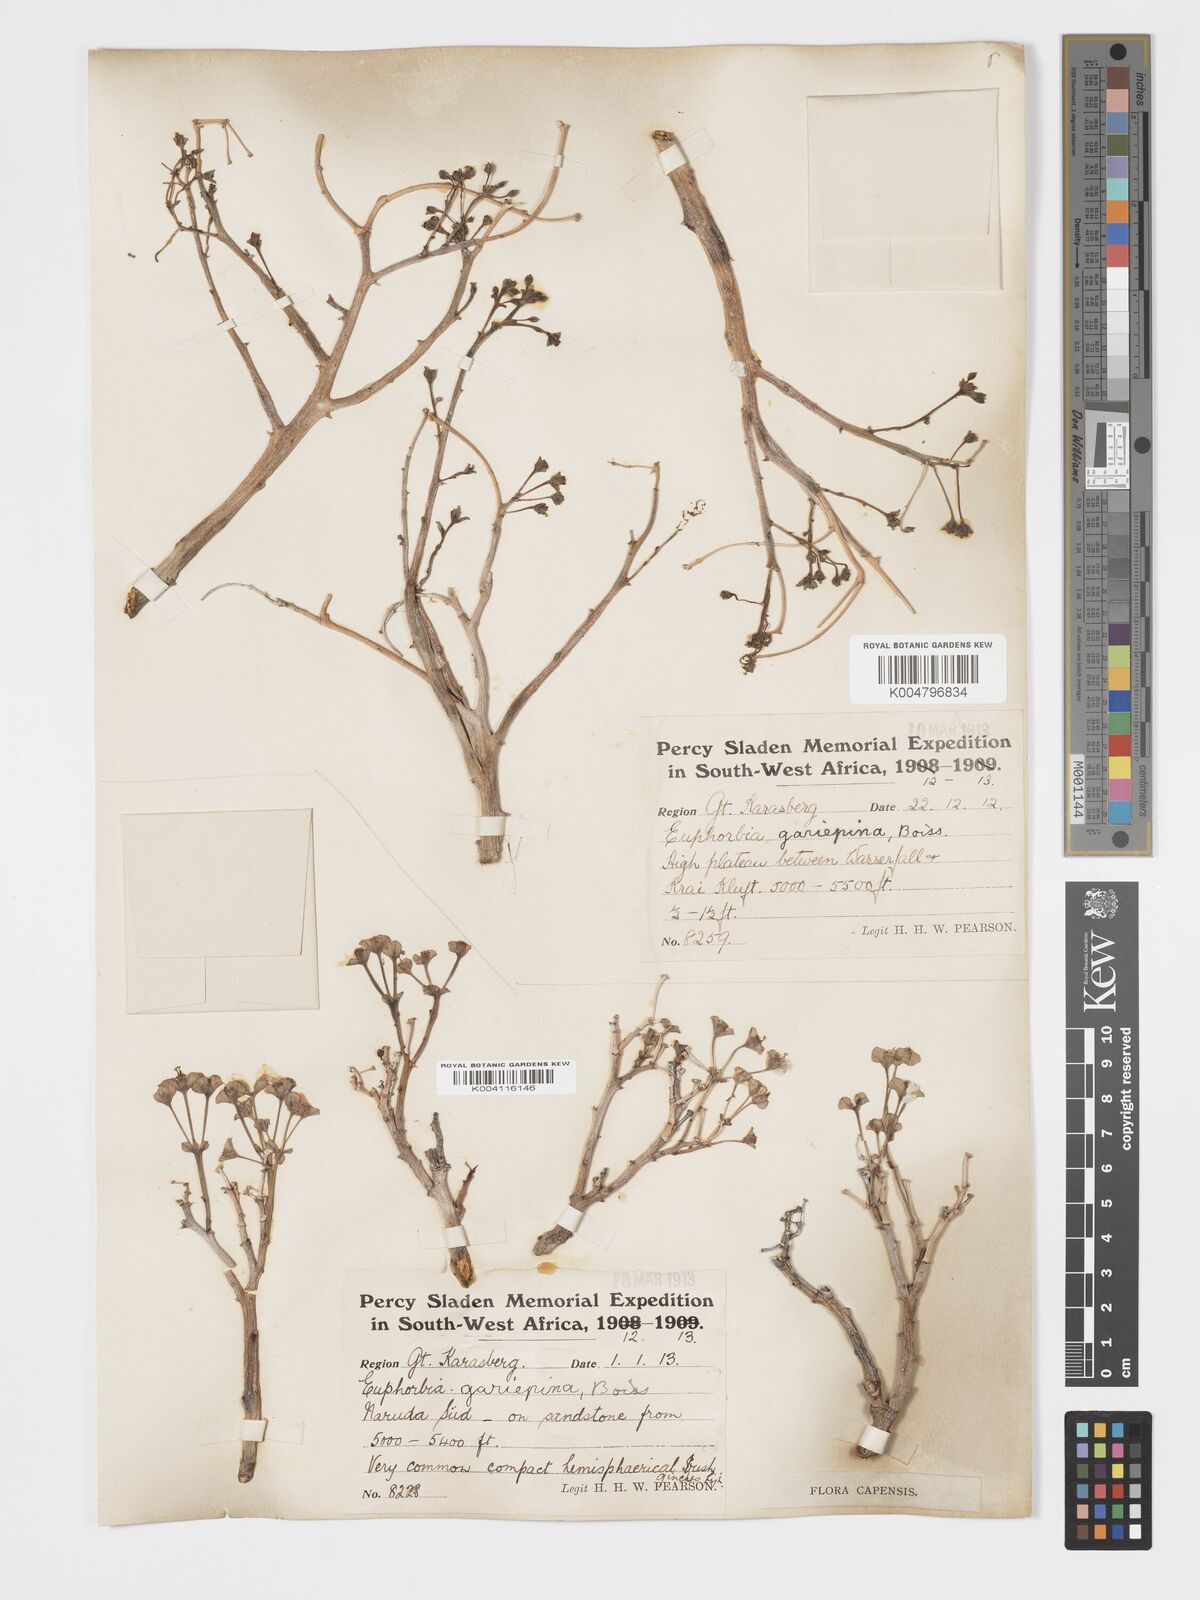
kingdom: Plantae
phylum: Tracheophyta
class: Magnoliopsida
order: Malpighiales
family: Euphorbiaceae
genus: Euphorbia
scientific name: Euphorbia gariepina
